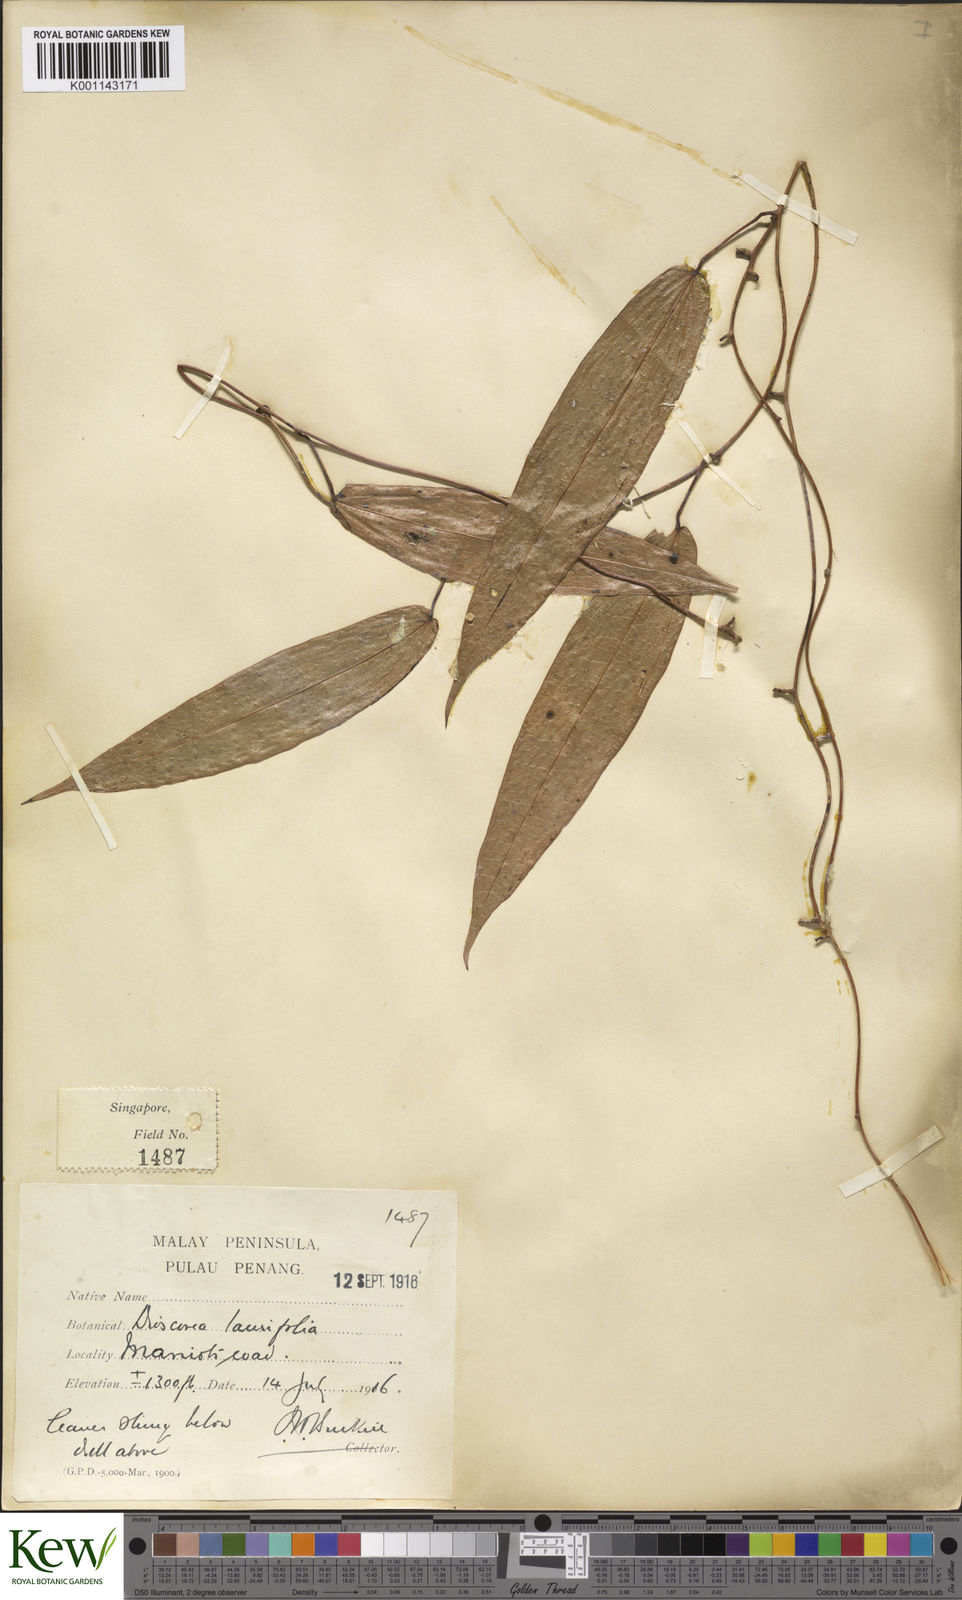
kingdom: Plantae
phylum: Tracheophyta
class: Liliopsida
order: Dioscoreales
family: Dioscoreaceae
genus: Dioscorea
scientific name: Dioscorea laurifolia
